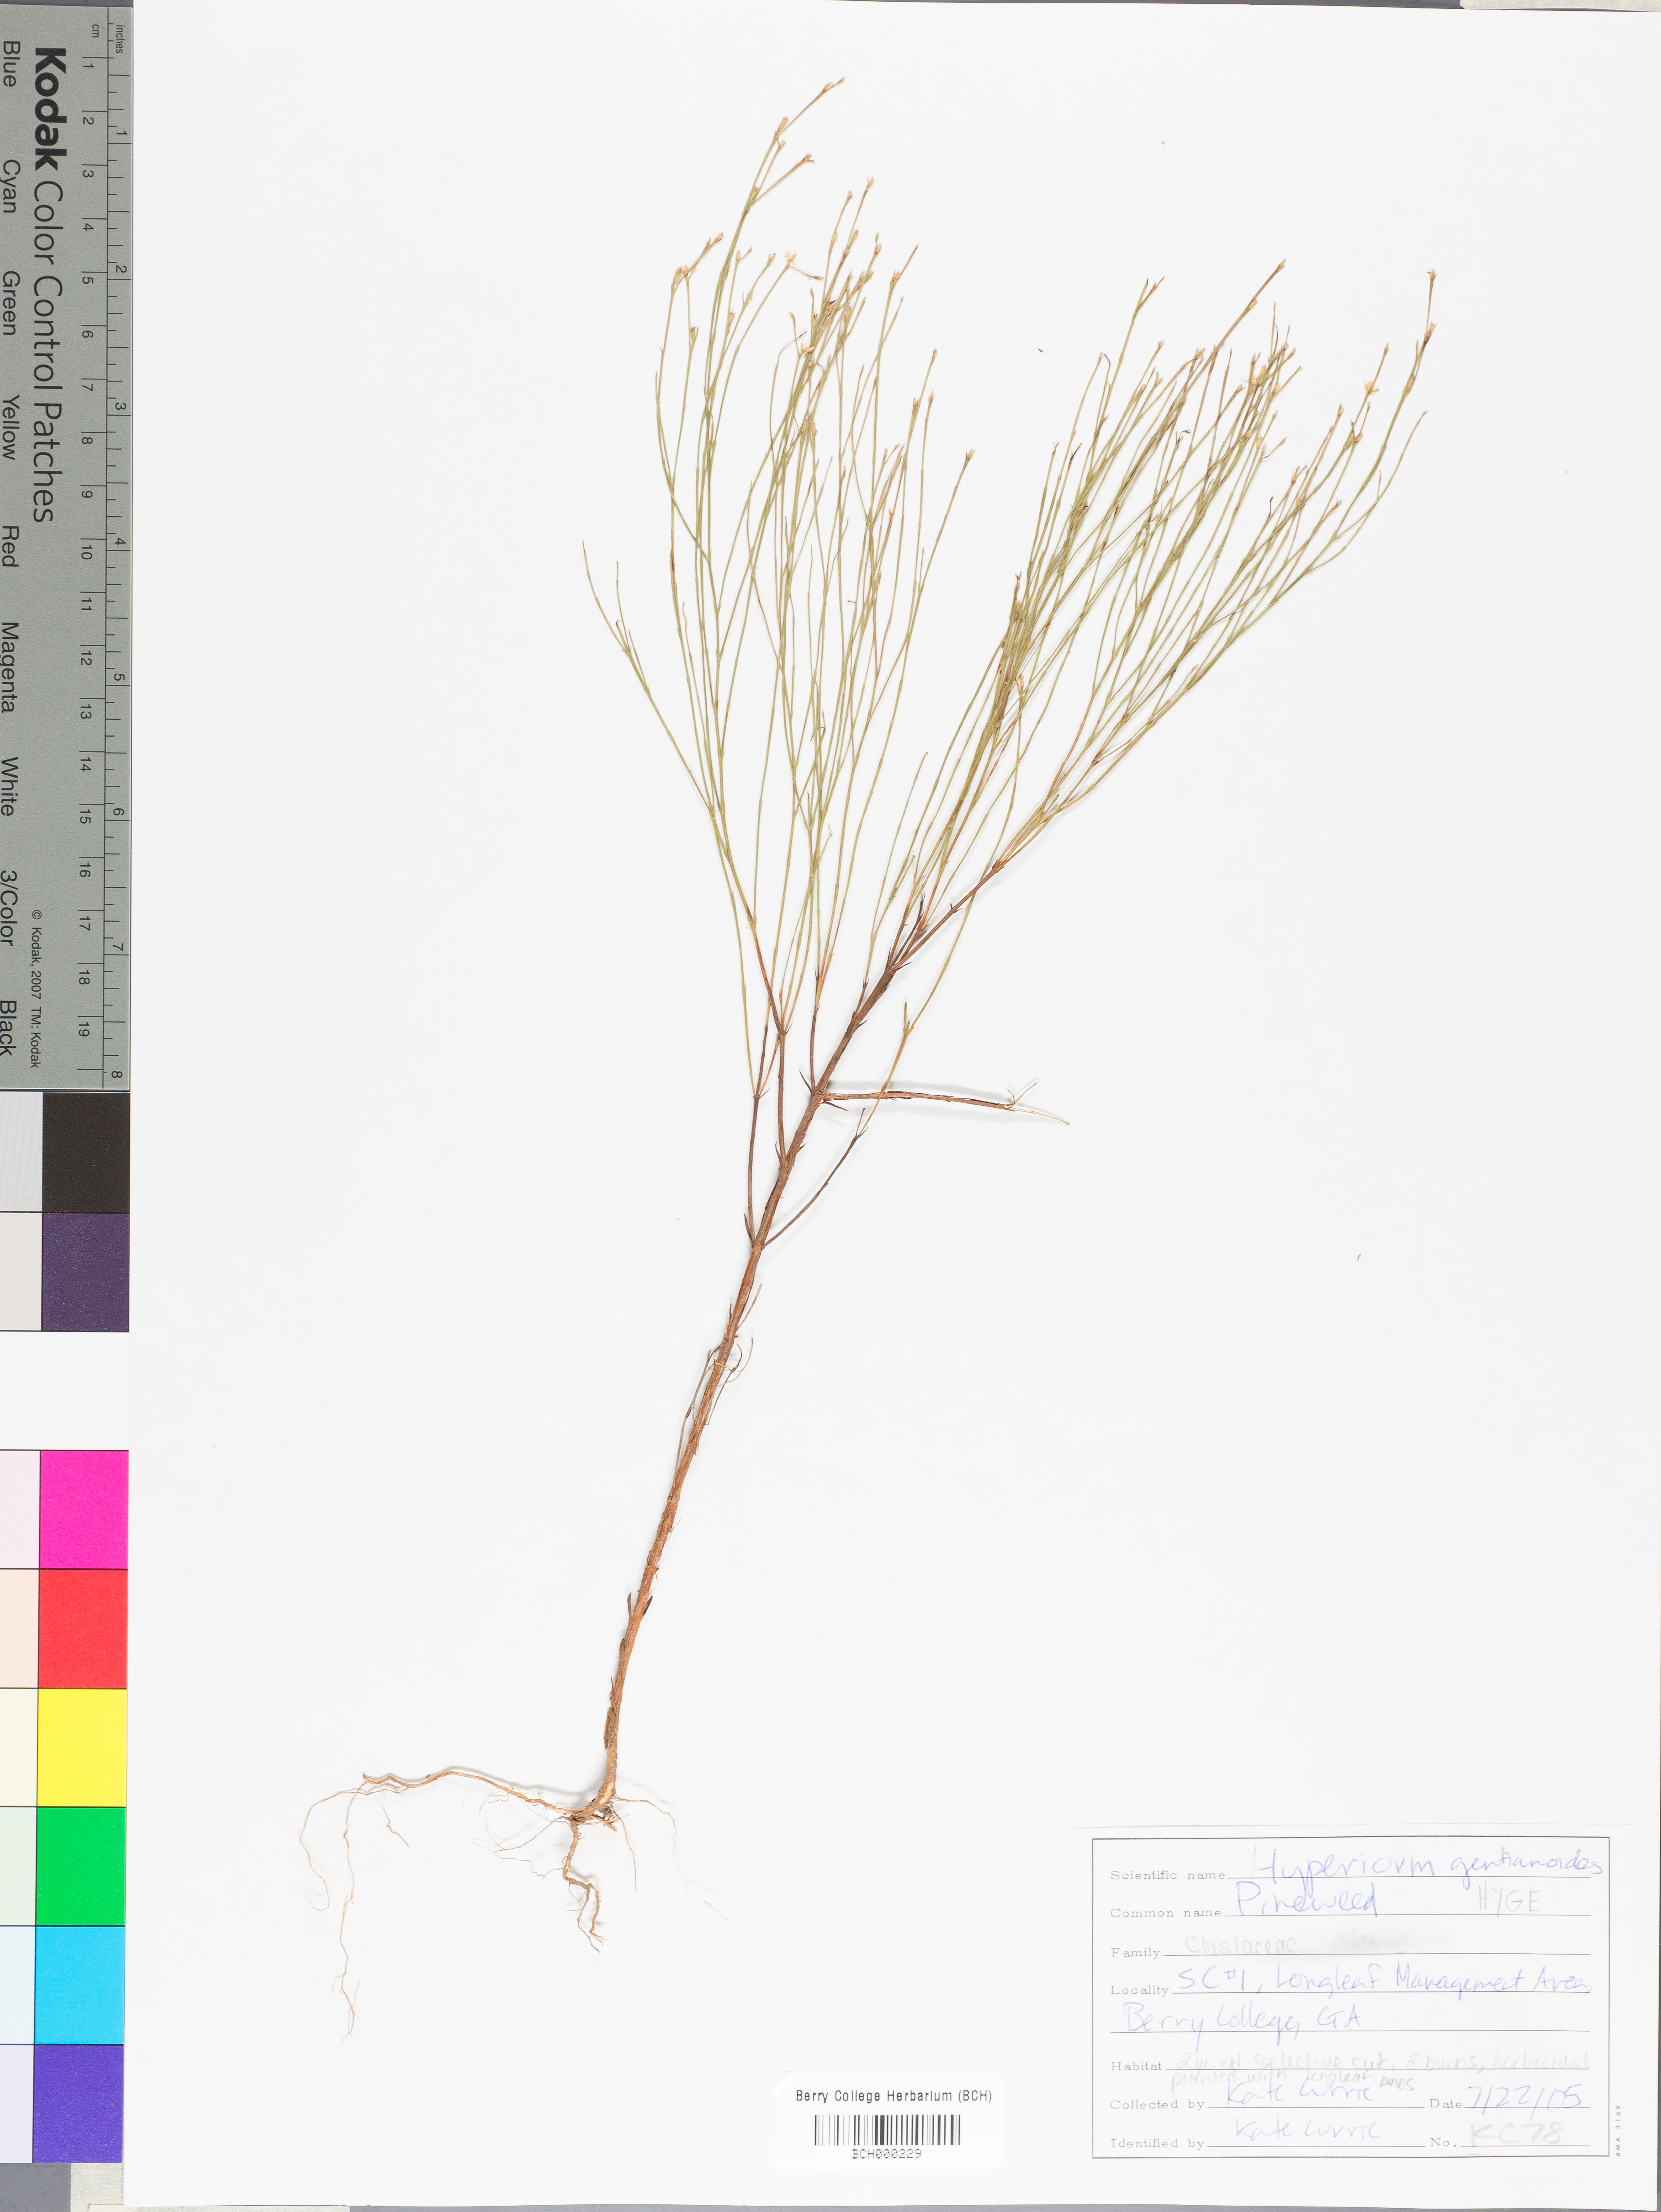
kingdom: Plantae
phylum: Tracheophyta
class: Magnoliopsida
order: Malpighiales
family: Hypericaceae
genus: Hypericum
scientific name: Hypericum gentianoides
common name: Gentian-leaved st. john's-wort
